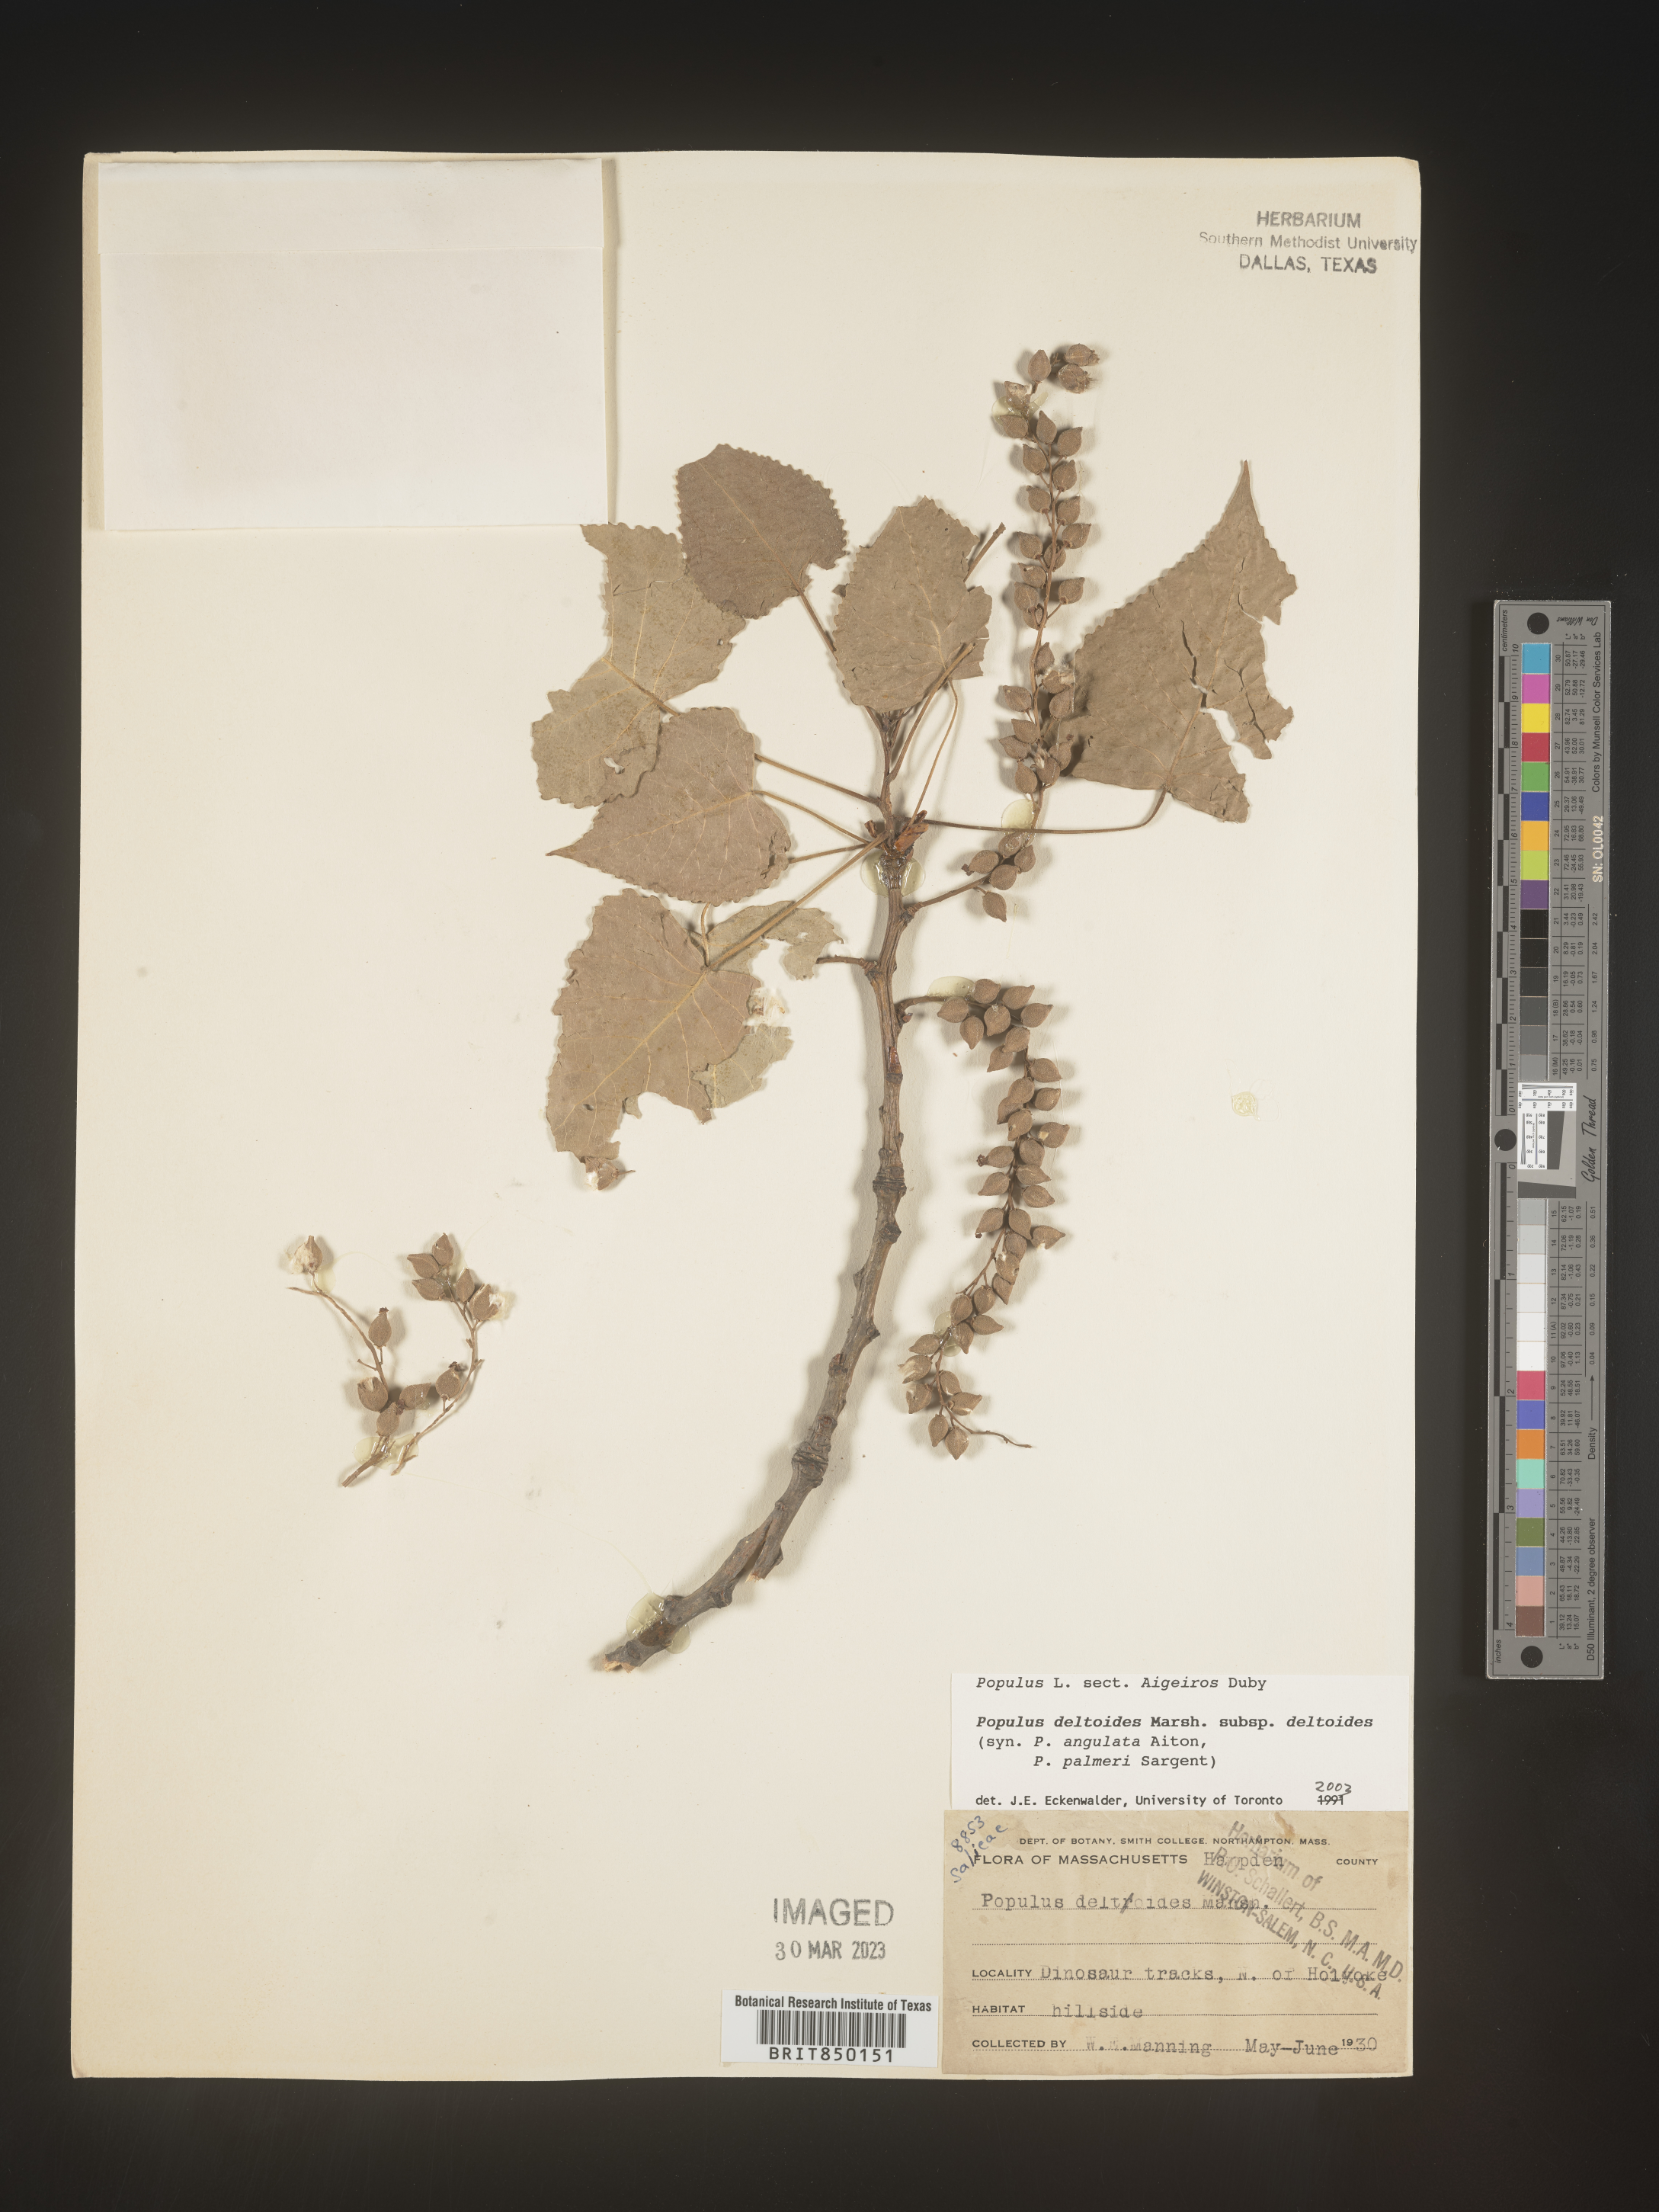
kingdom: Plantae
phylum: Tracheophyta
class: Magnoliopsida
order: Malpighiales
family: Salicaceae
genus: Populus
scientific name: Populus deltoides
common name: Eastern cottonwood
